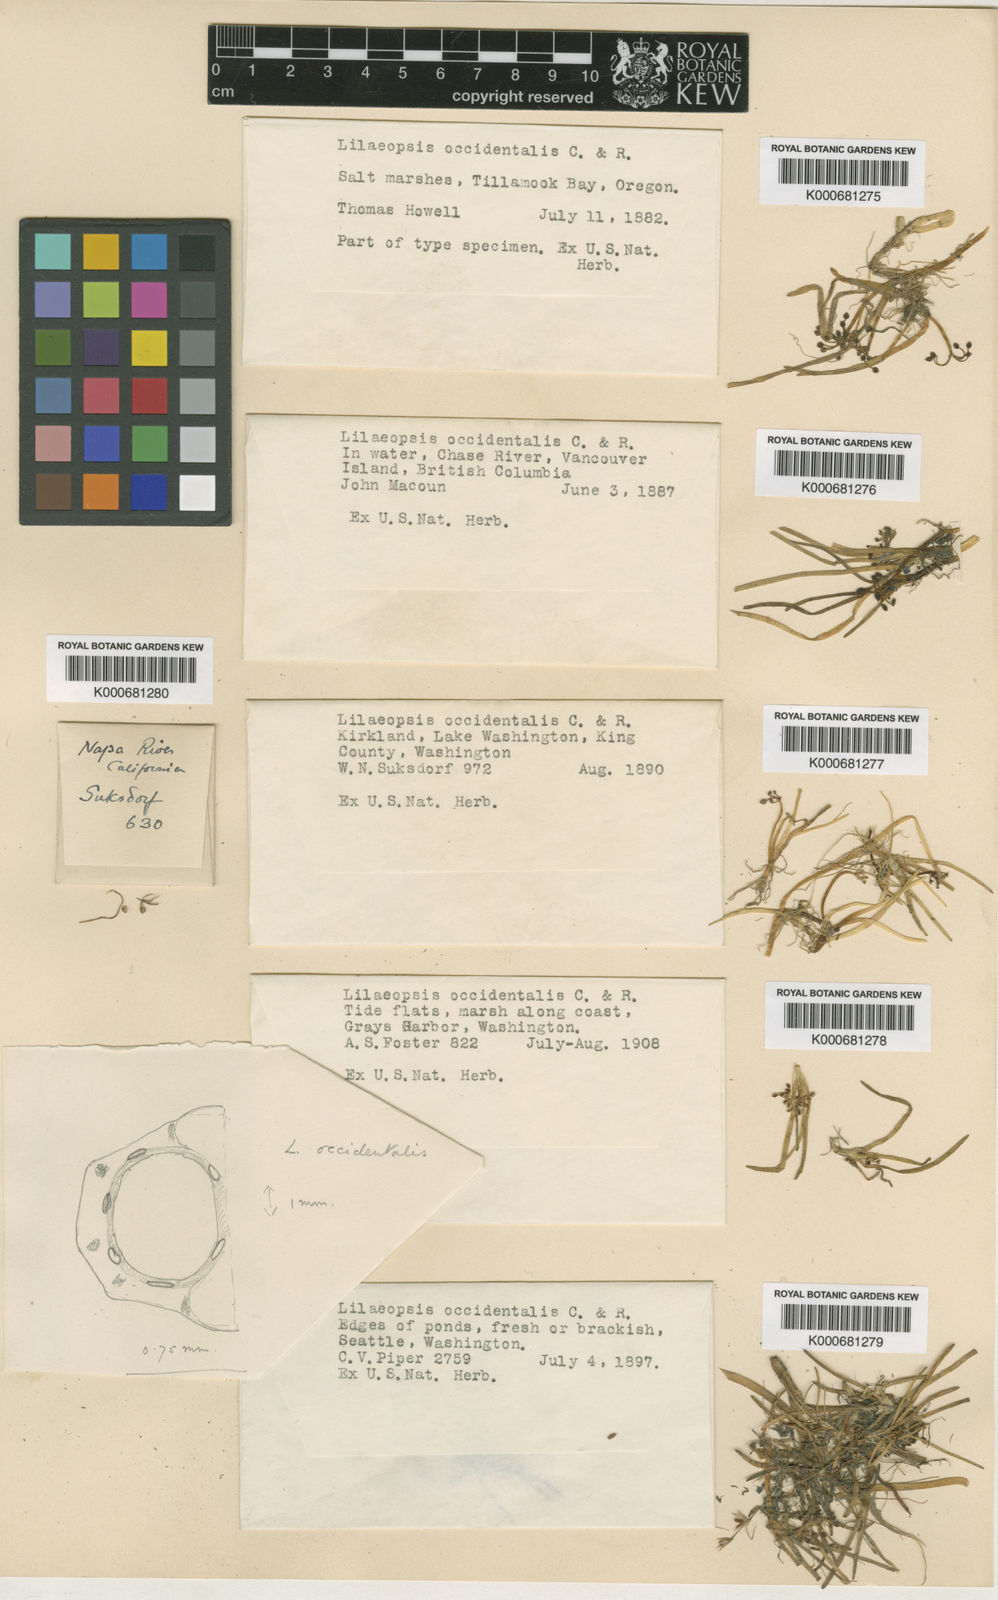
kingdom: Plantae
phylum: Tracheophyta
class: Magnoliopsida
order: Apiales
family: Apiaceae
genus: Lilaeopsis
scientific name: Lilaeopsis occidentalis
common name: Western grasswort
